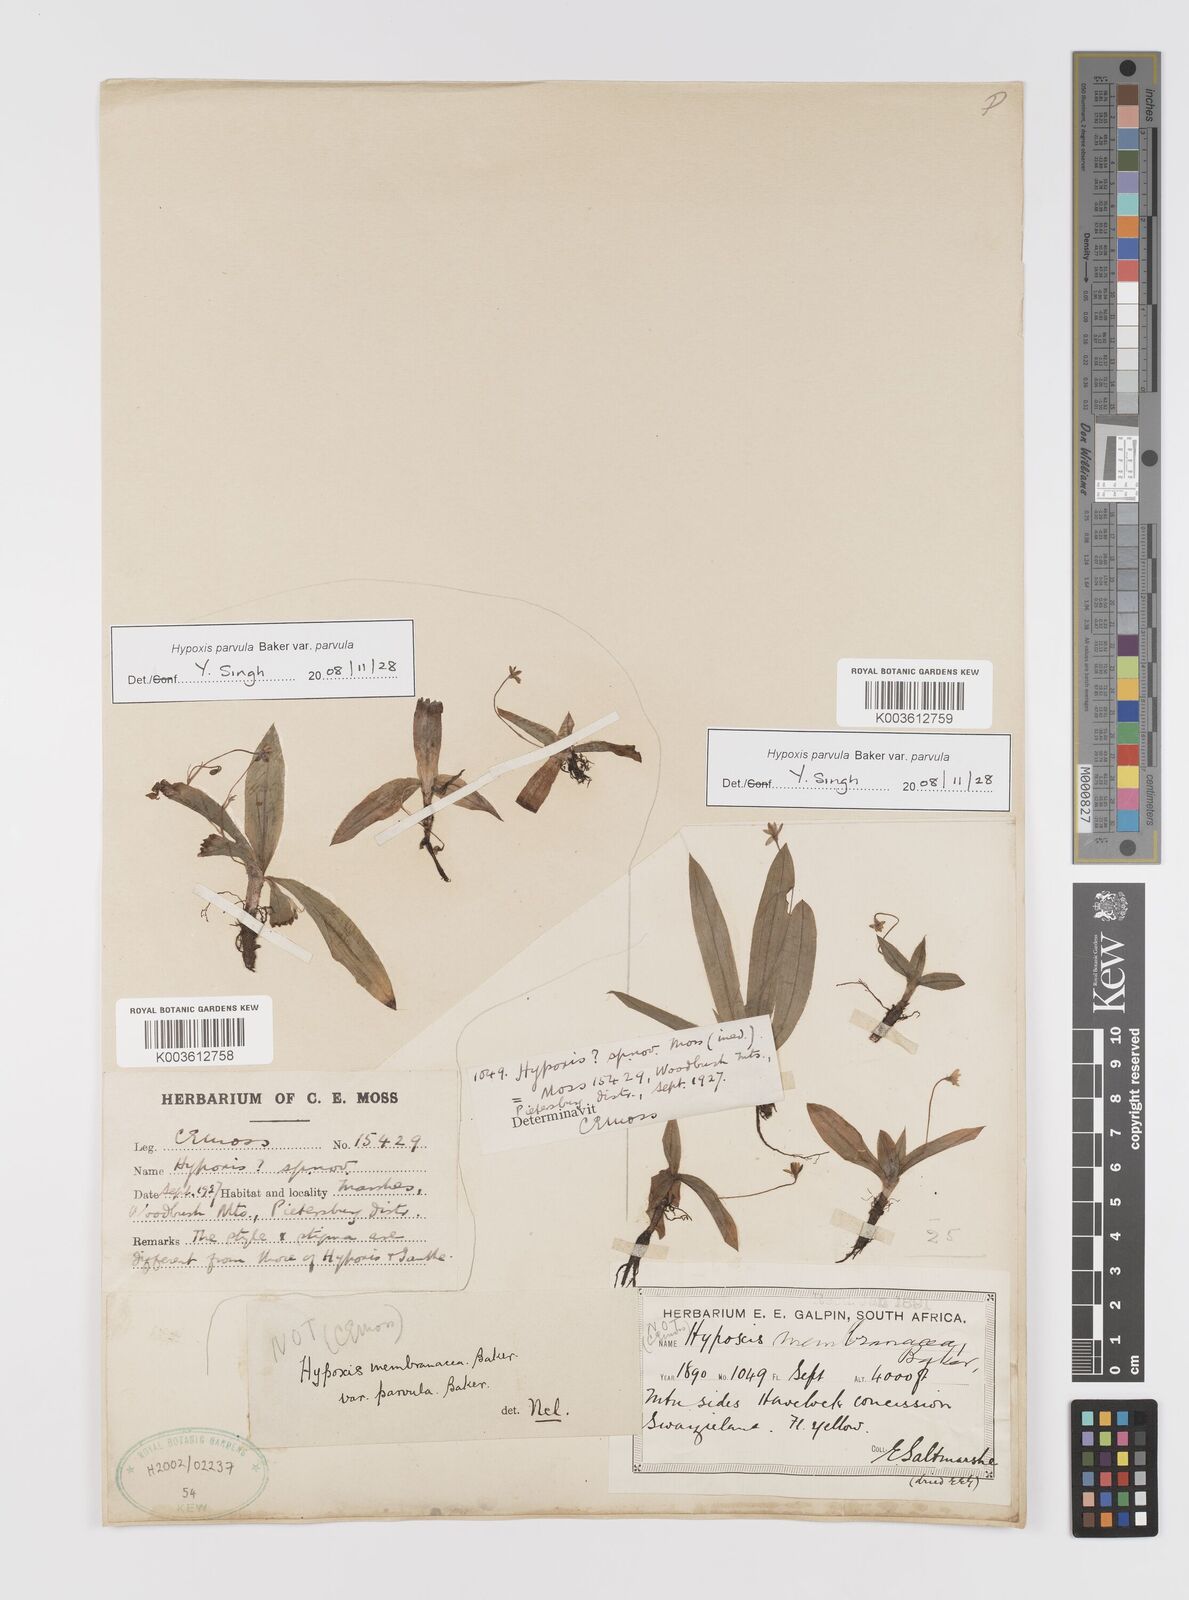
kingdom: Plantae
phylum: Tracheophyta
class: Liliopsida
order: Asparagales
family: Hypoxidaceae
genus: Hypoxis
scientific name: Hypoxis parvula
